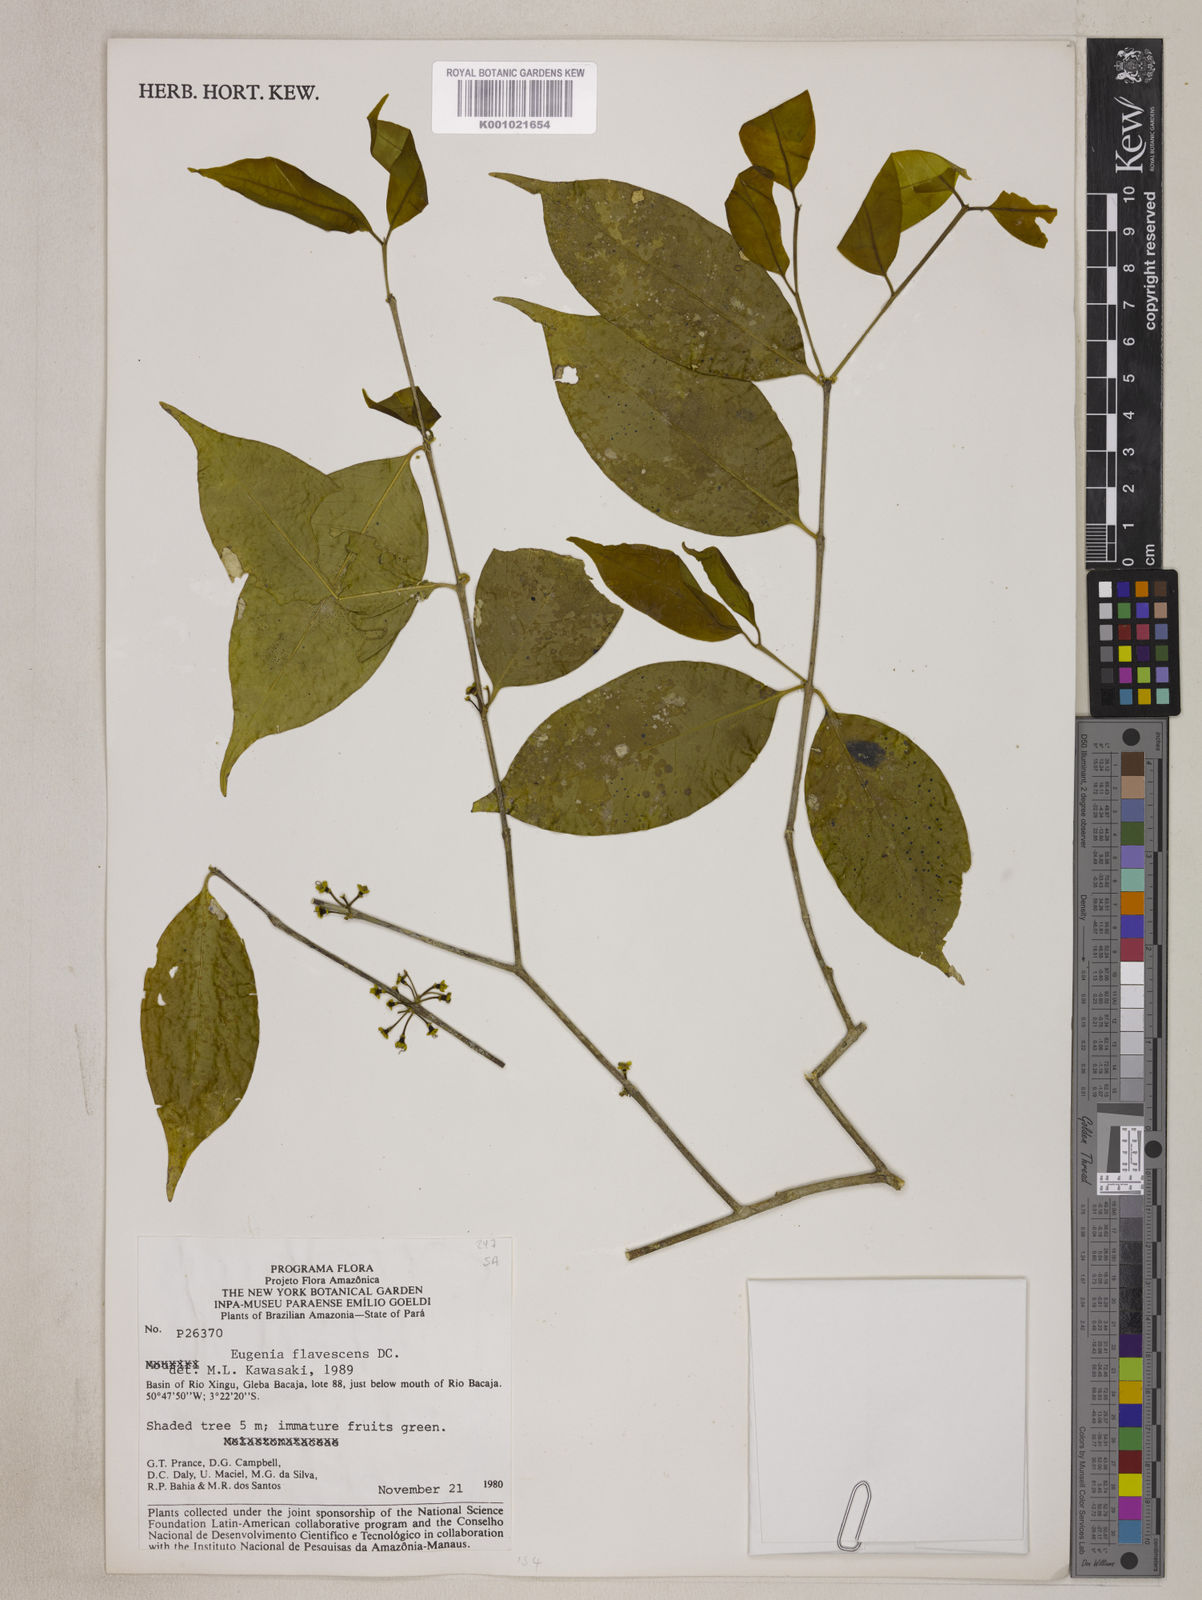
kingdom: Plantae
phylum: Tracheophyta
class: Magnoliopsida
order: Myrtales
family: Myrtaceae
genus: Eugenia
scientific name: Eugenia flavescens
